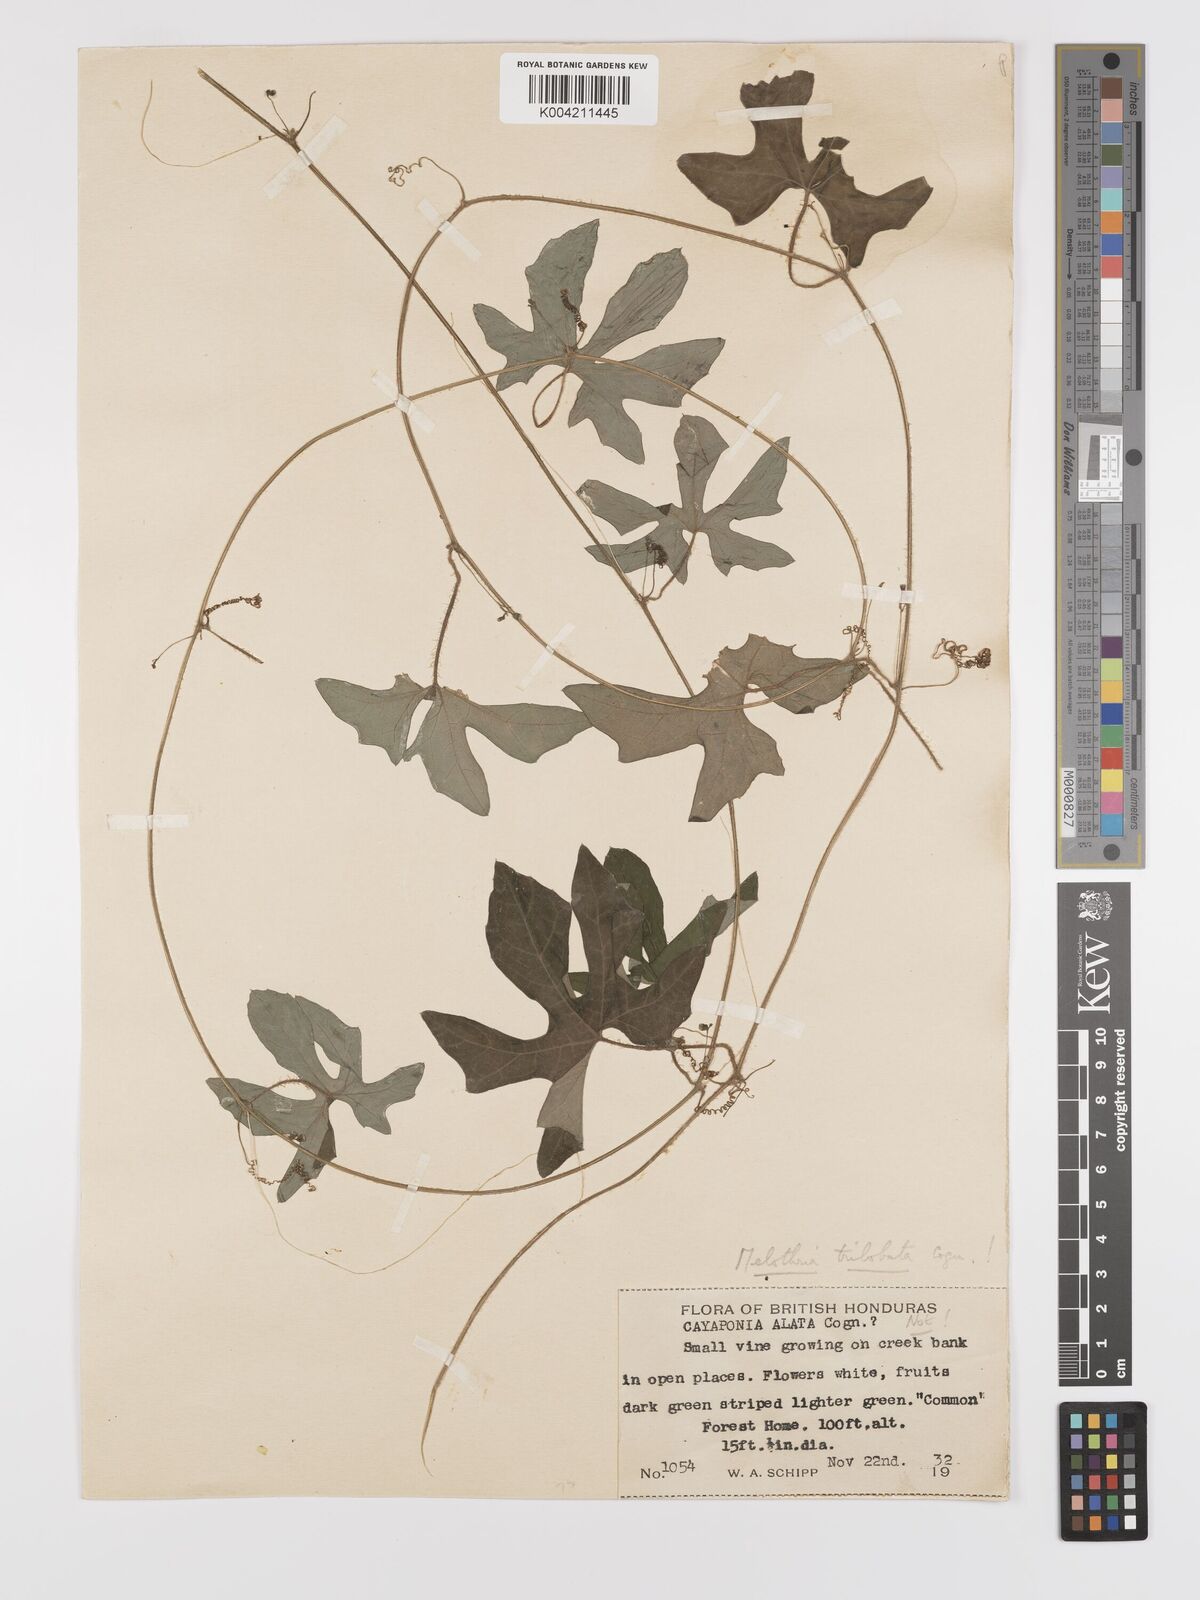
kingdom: Plantae
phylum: Tracheophyta
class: Magnoliopsida
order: Cucurbitales
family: Cucurbitaceae
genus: Melothria
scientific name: Melothria trilobata
